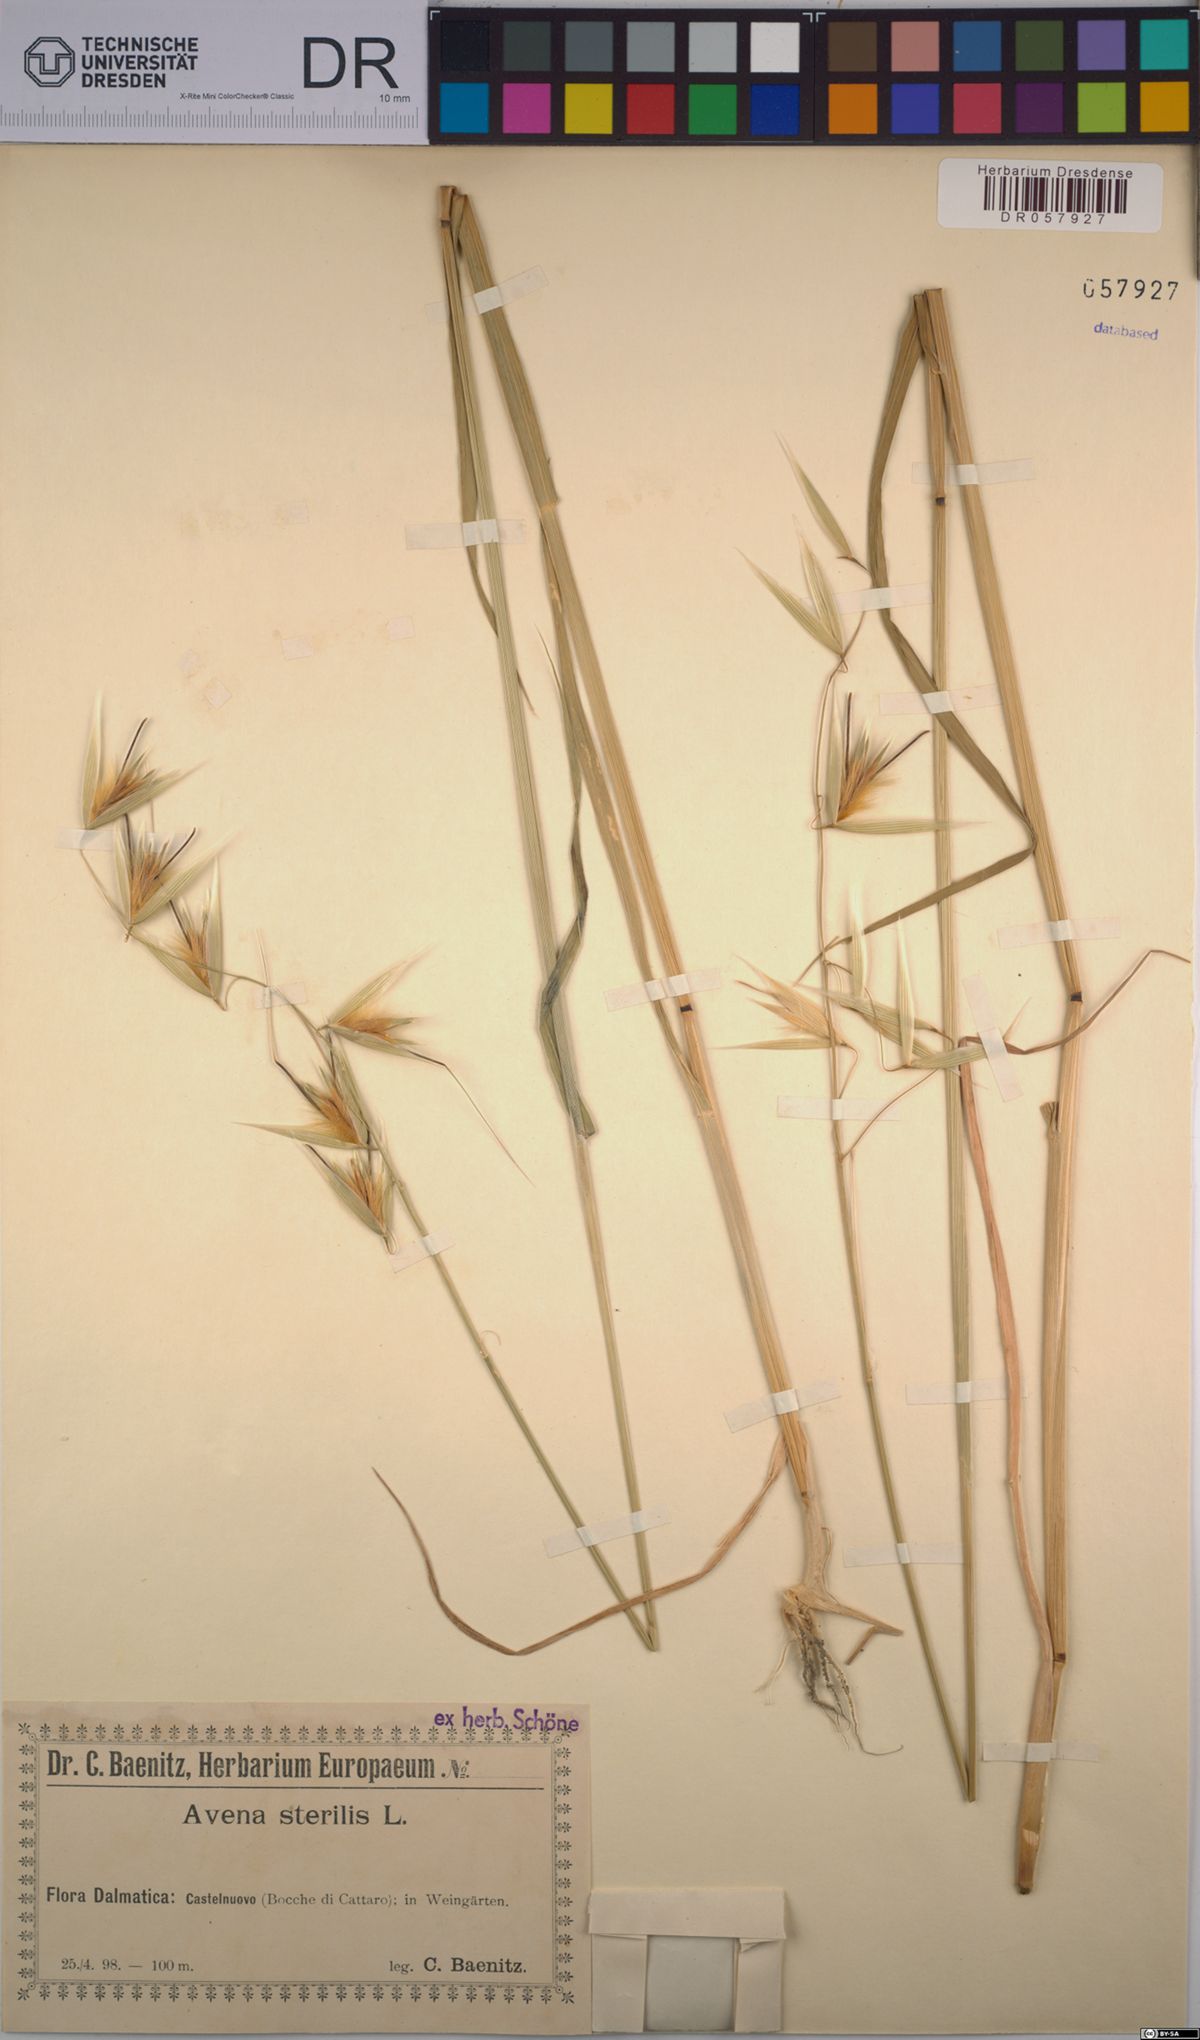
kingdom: Plantae
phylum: Tracheophyta
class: Liliopsida
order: Poales
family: Poaceae
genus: Avena
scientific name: Avena sterilis
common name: Animated oat
